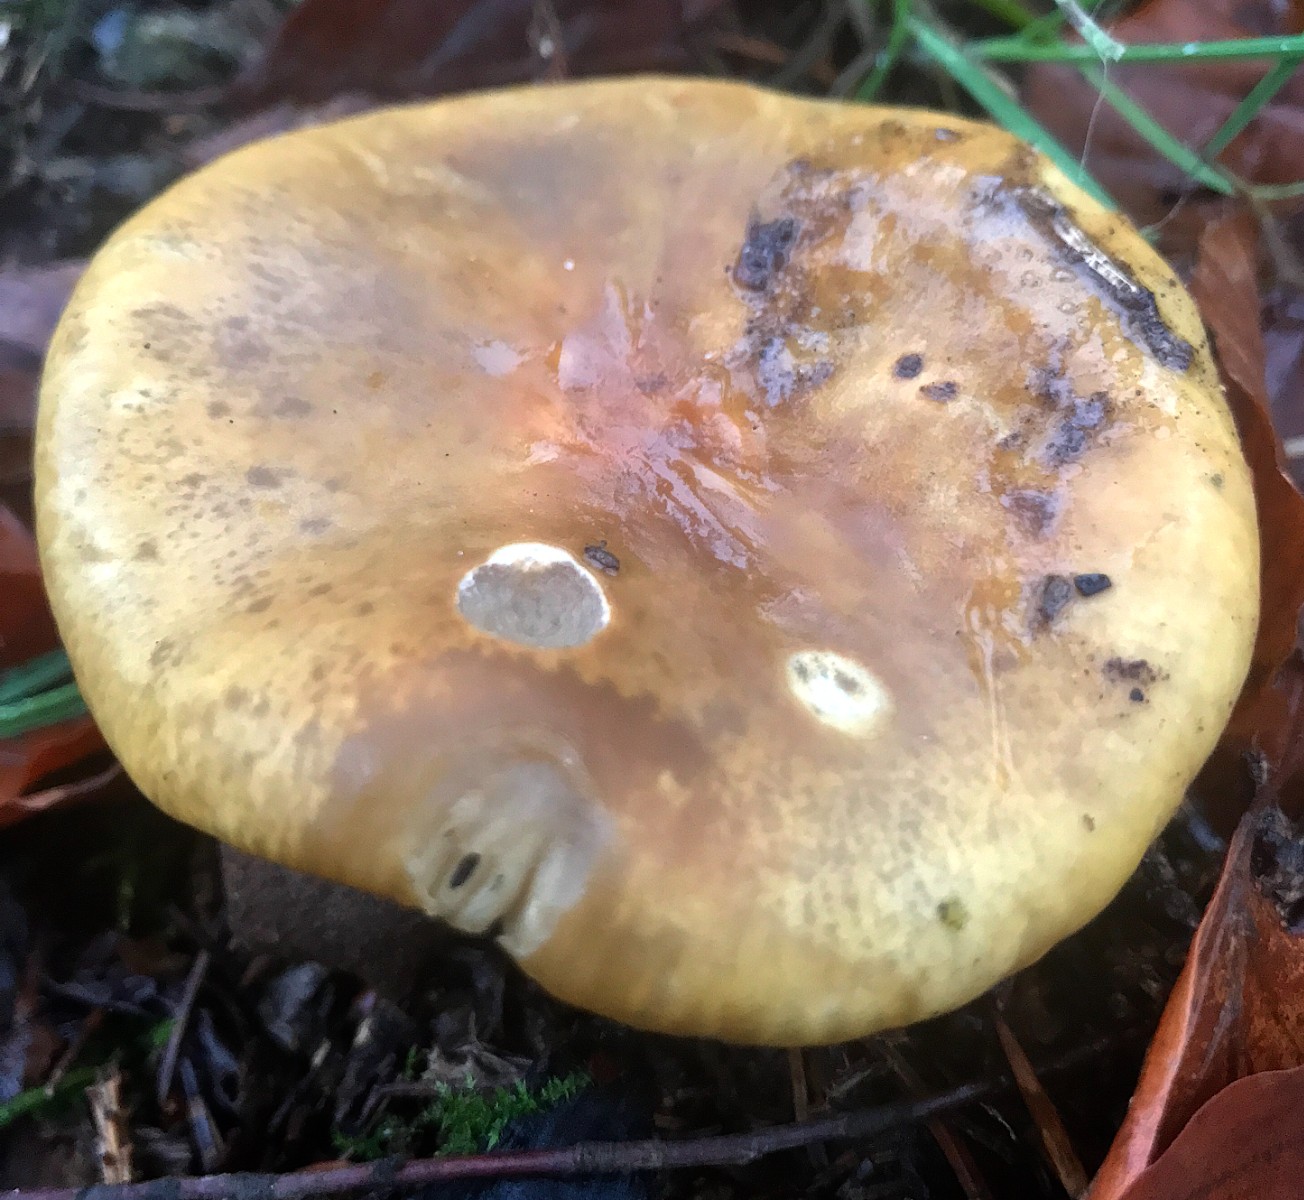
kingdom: Fungi
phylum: Basidiomycota
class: Agaricomycetes
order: Russulales
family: Russulaceae
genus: Russula
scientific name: Russula ochroleuca
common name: okkergul skørhat
